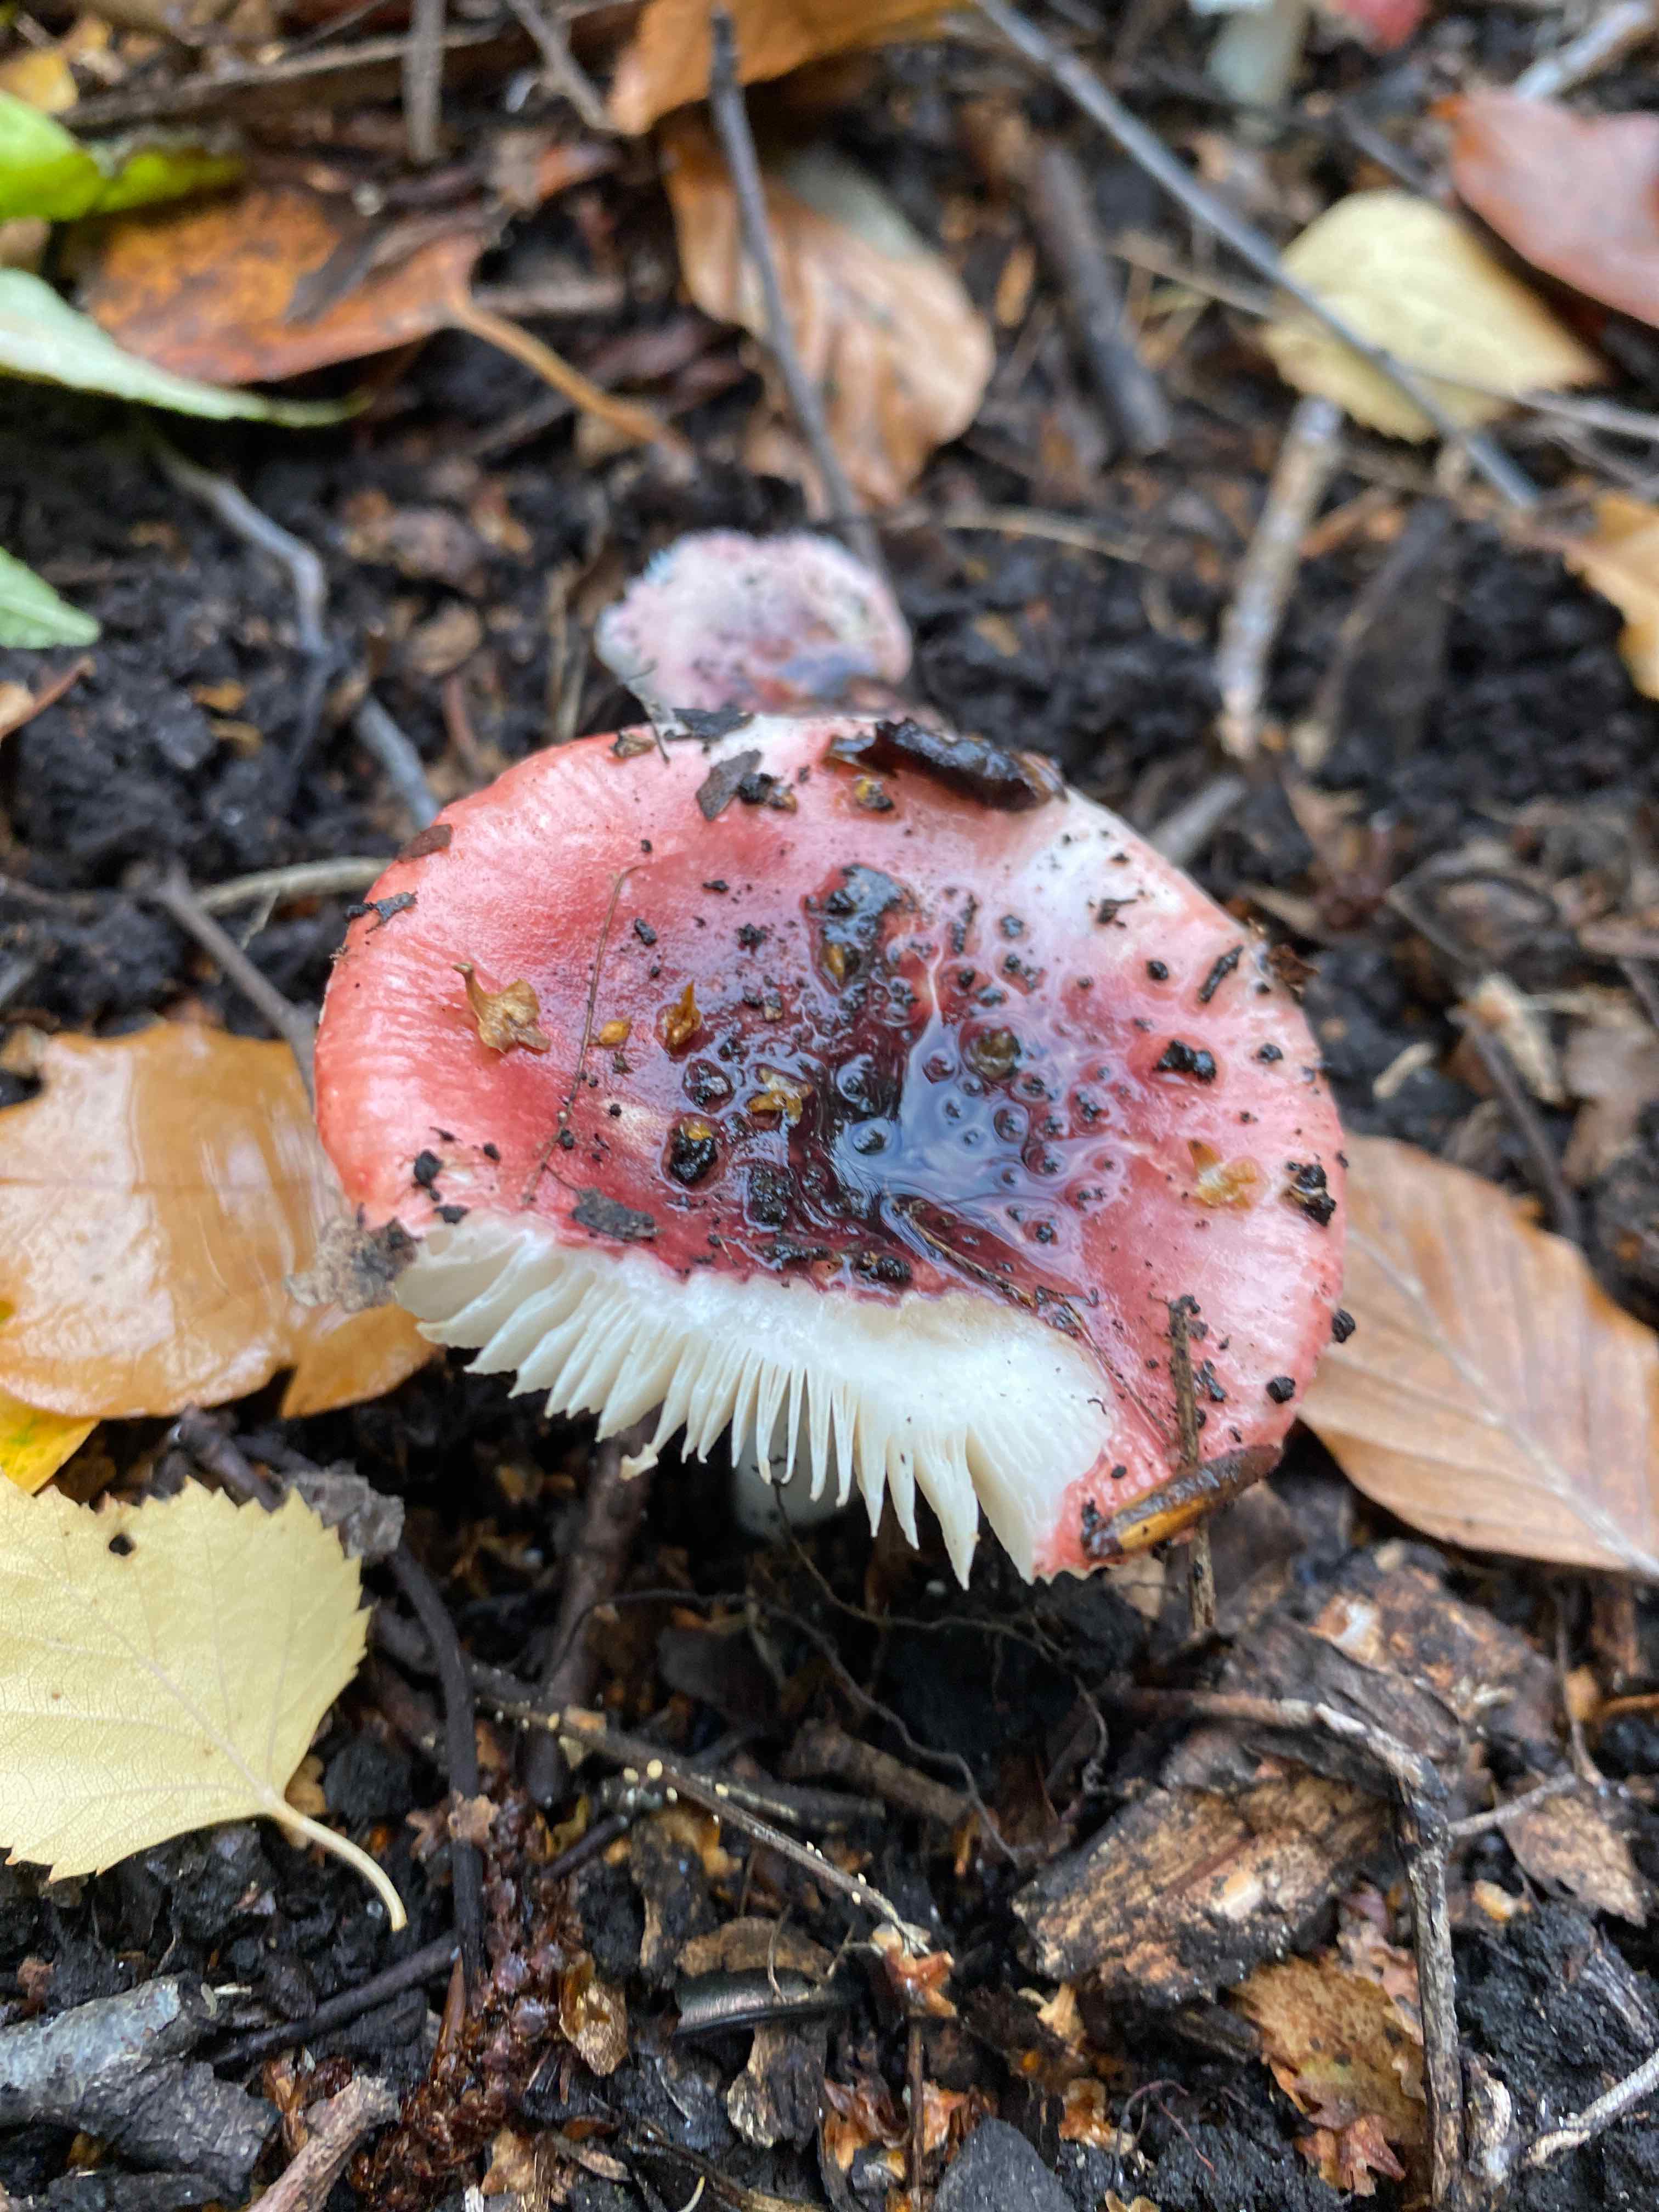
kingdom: Fungi
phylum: Basidiomycota
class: Agaricomycetes
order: Russulales
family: Russulaceae
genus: Russula
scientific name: Russula
